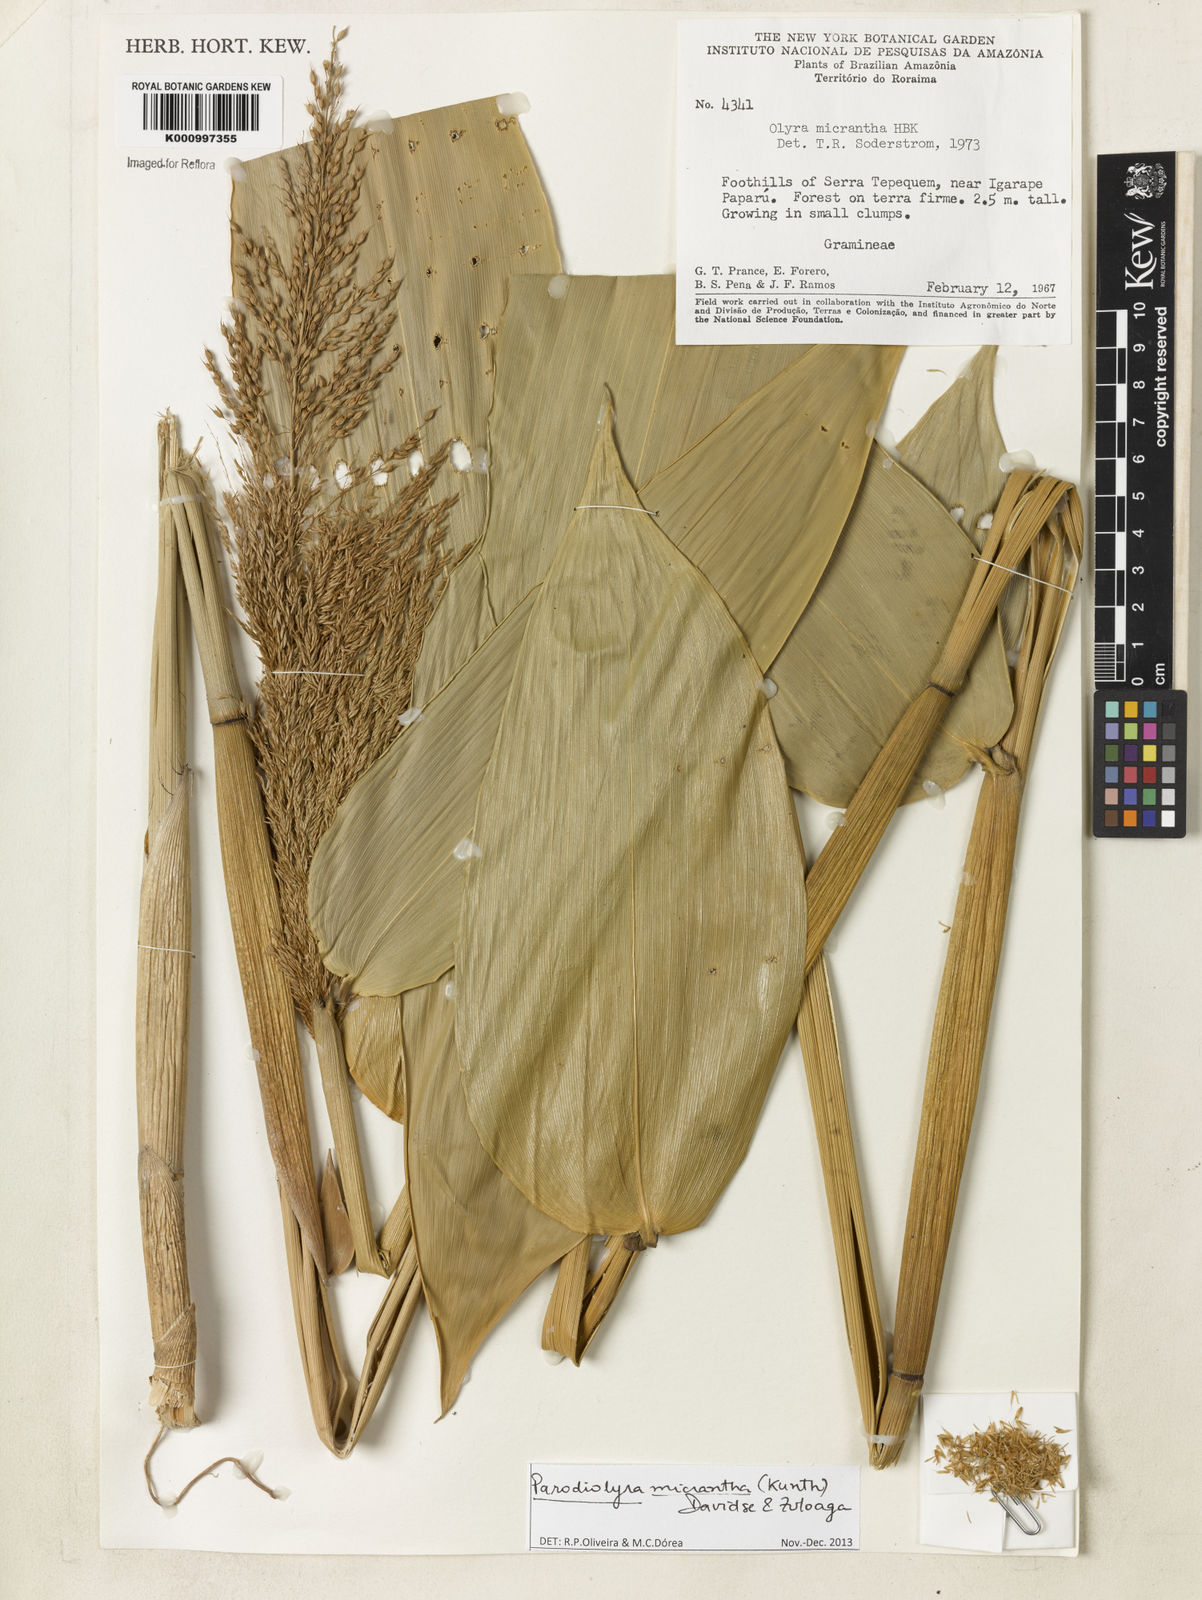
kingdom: Plantae
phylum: Tracheophyta
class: Liliopsida
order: Poales
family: Poaceae
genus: Taquara
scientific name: Taquara micrantha
